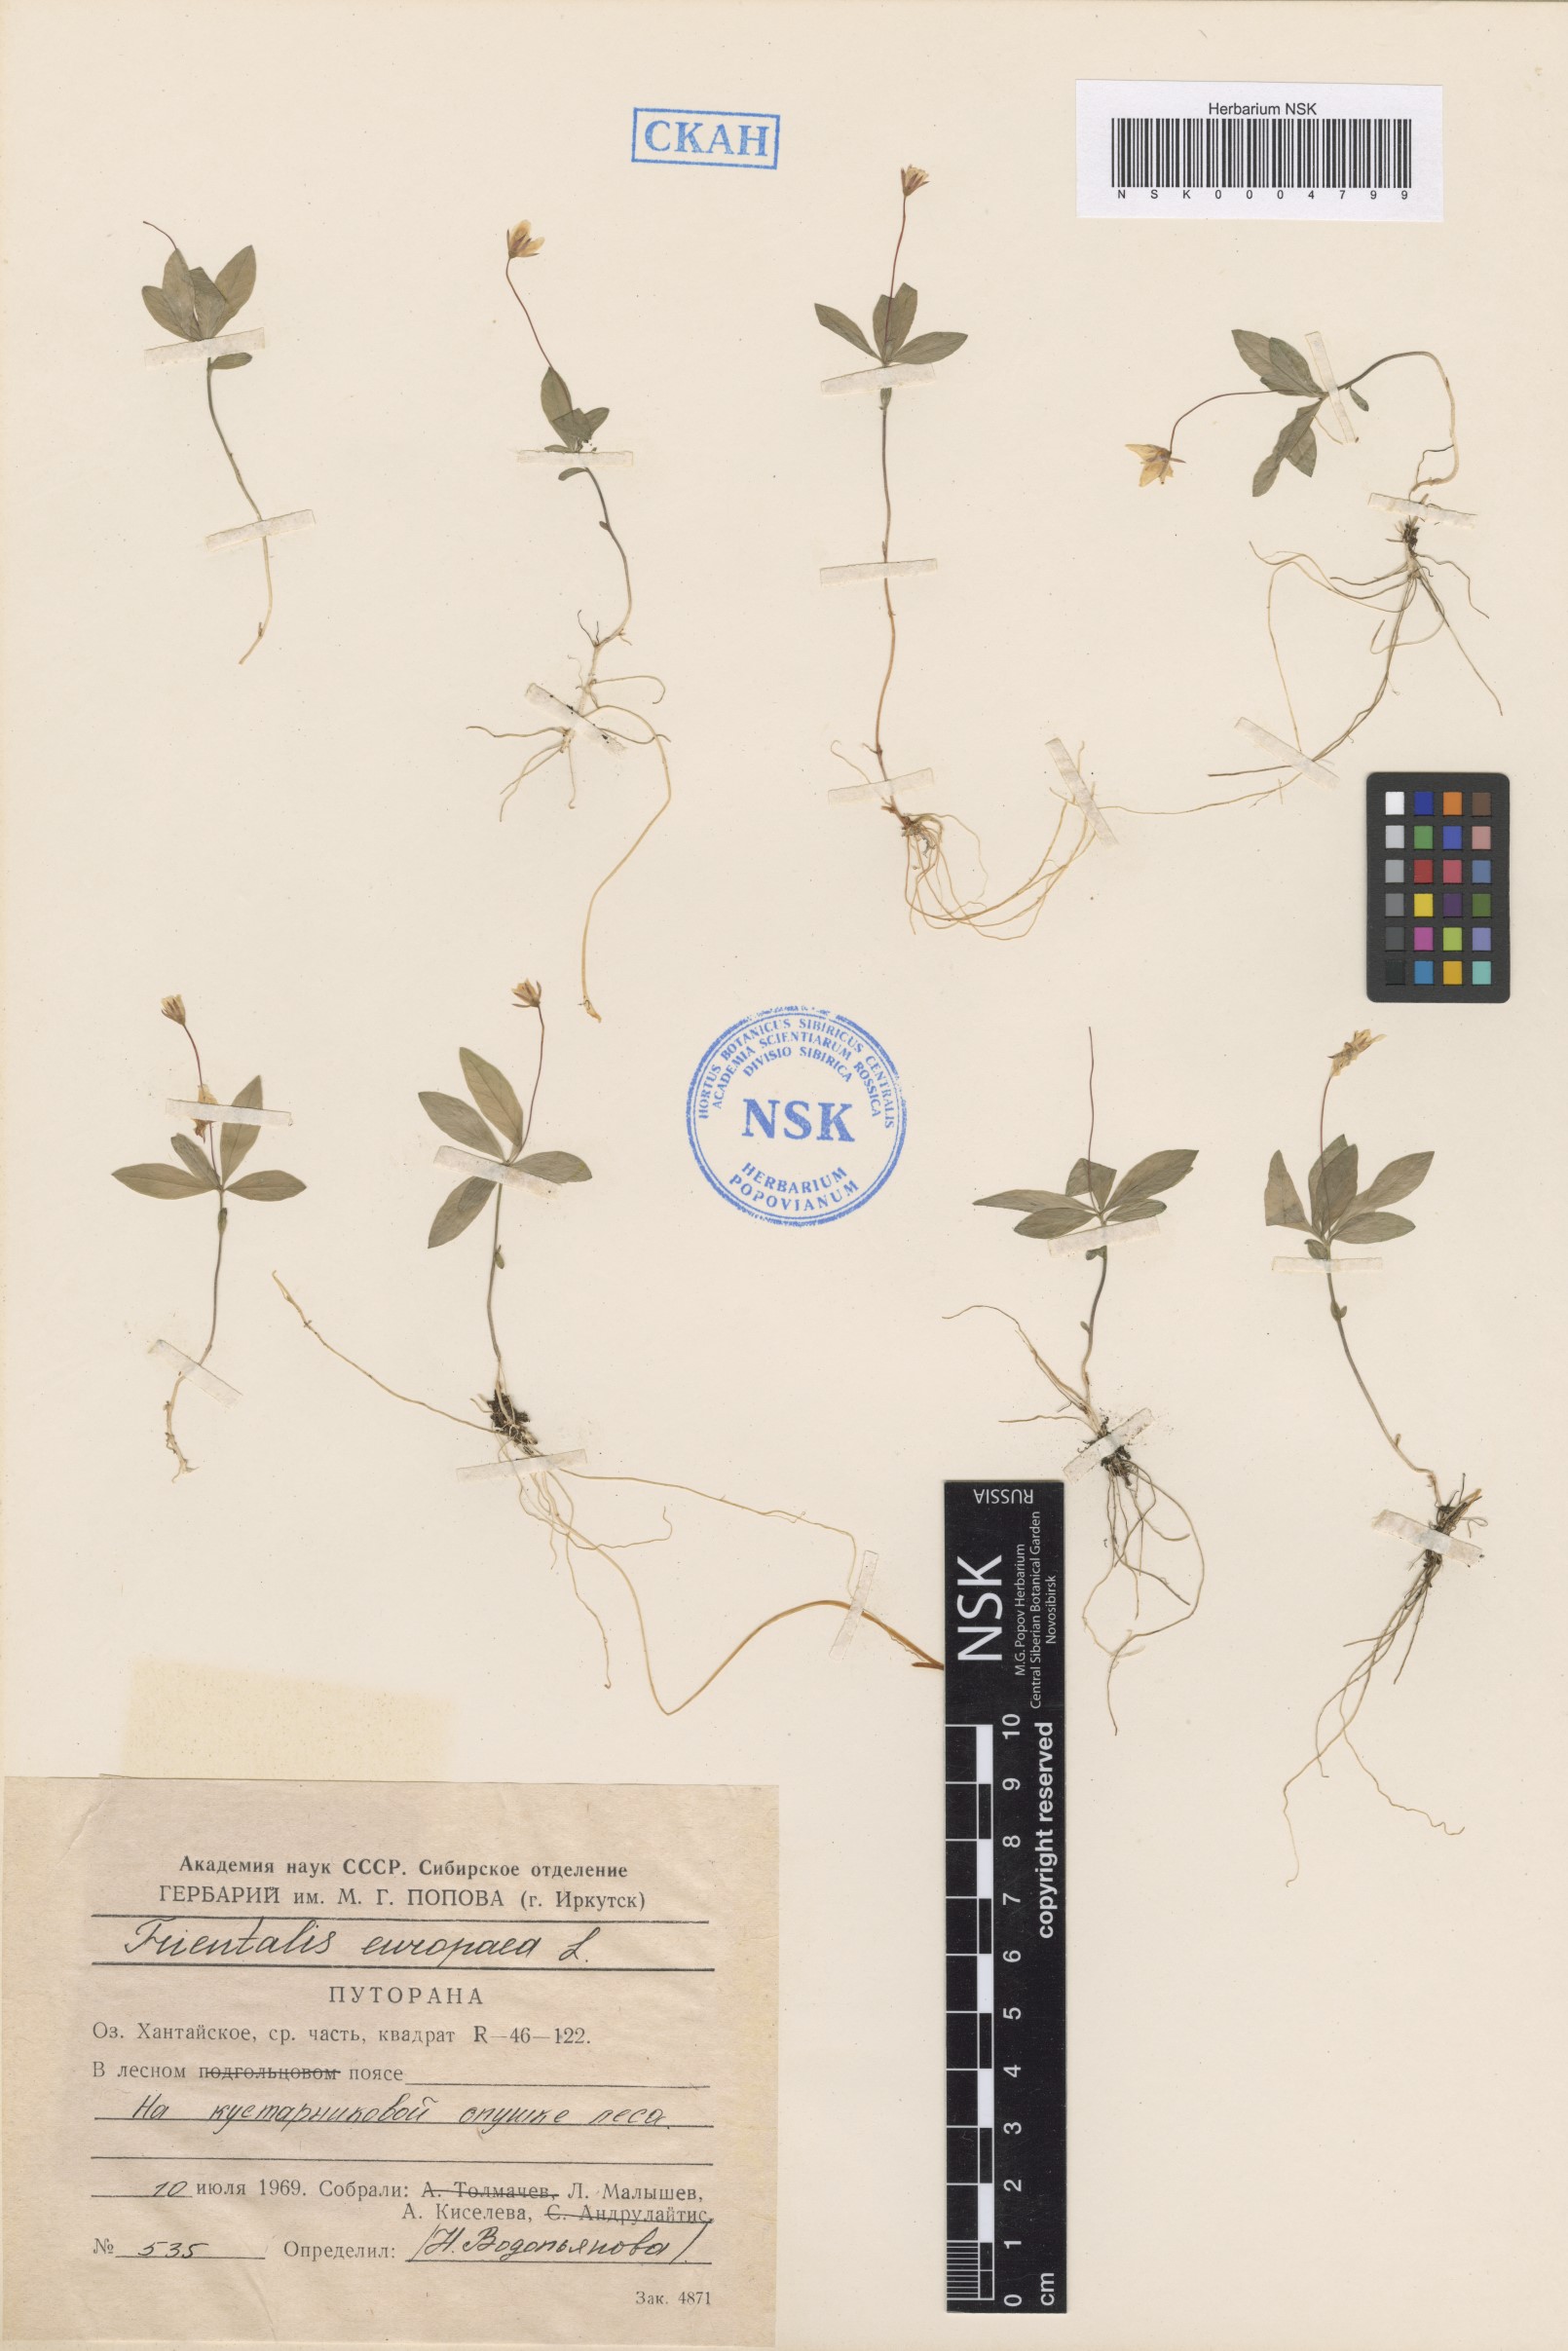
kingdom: Plantae
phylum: Tracheophyta
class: Magnoliopsida
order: Ericales
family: Primulaceae
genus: Lysimachia
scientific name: Lysimachia europaea
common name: Arctic starflower
